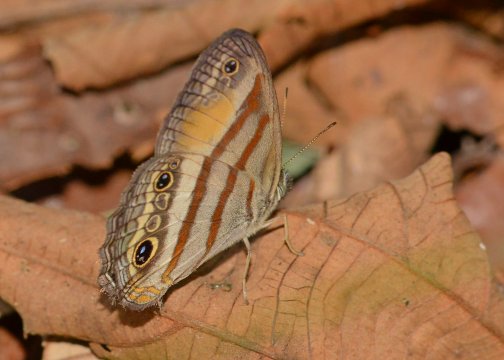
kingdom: Animalia
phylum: Arthropoda
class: Insecta
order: Lepidoptera
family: Nymphalidae
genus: Euptychia
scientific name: Euptychia Cissia pseudoconfusa
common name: Gold-stained Satyr
